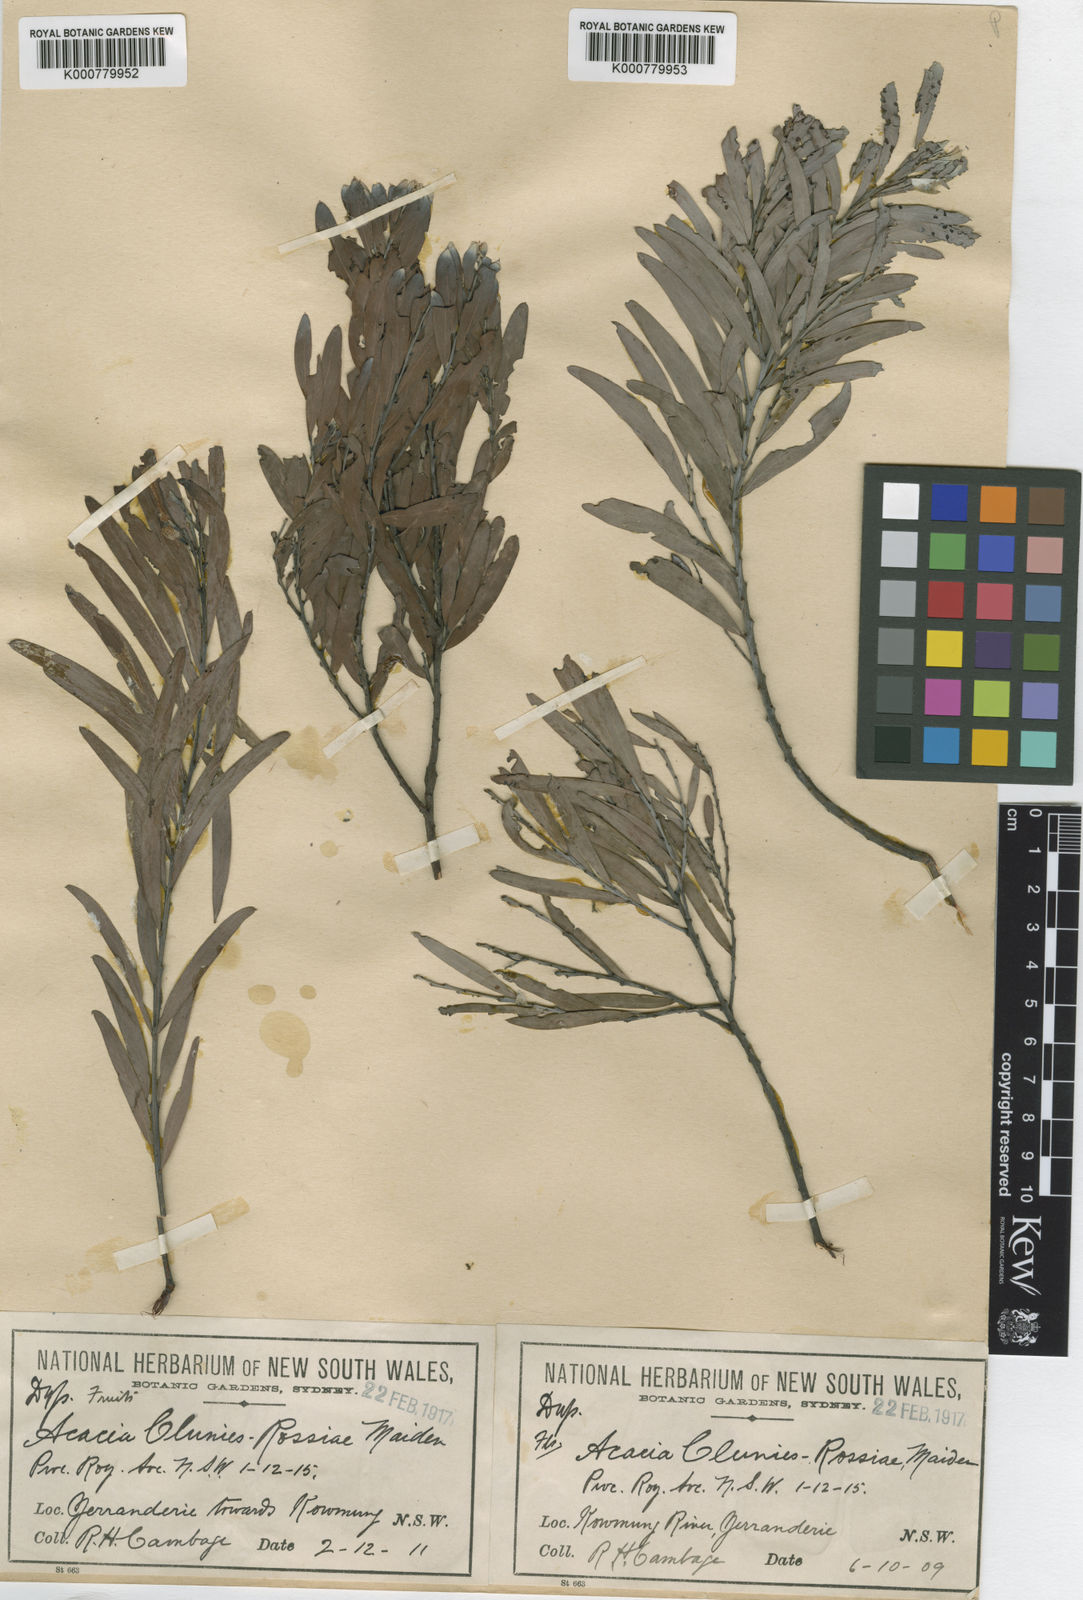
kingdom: Plantae
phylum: Tracheophyta
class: Magnoliopsida
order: Fabales
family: Fabaceae
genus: Acacia
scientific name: Acacia clunies-rossiae
